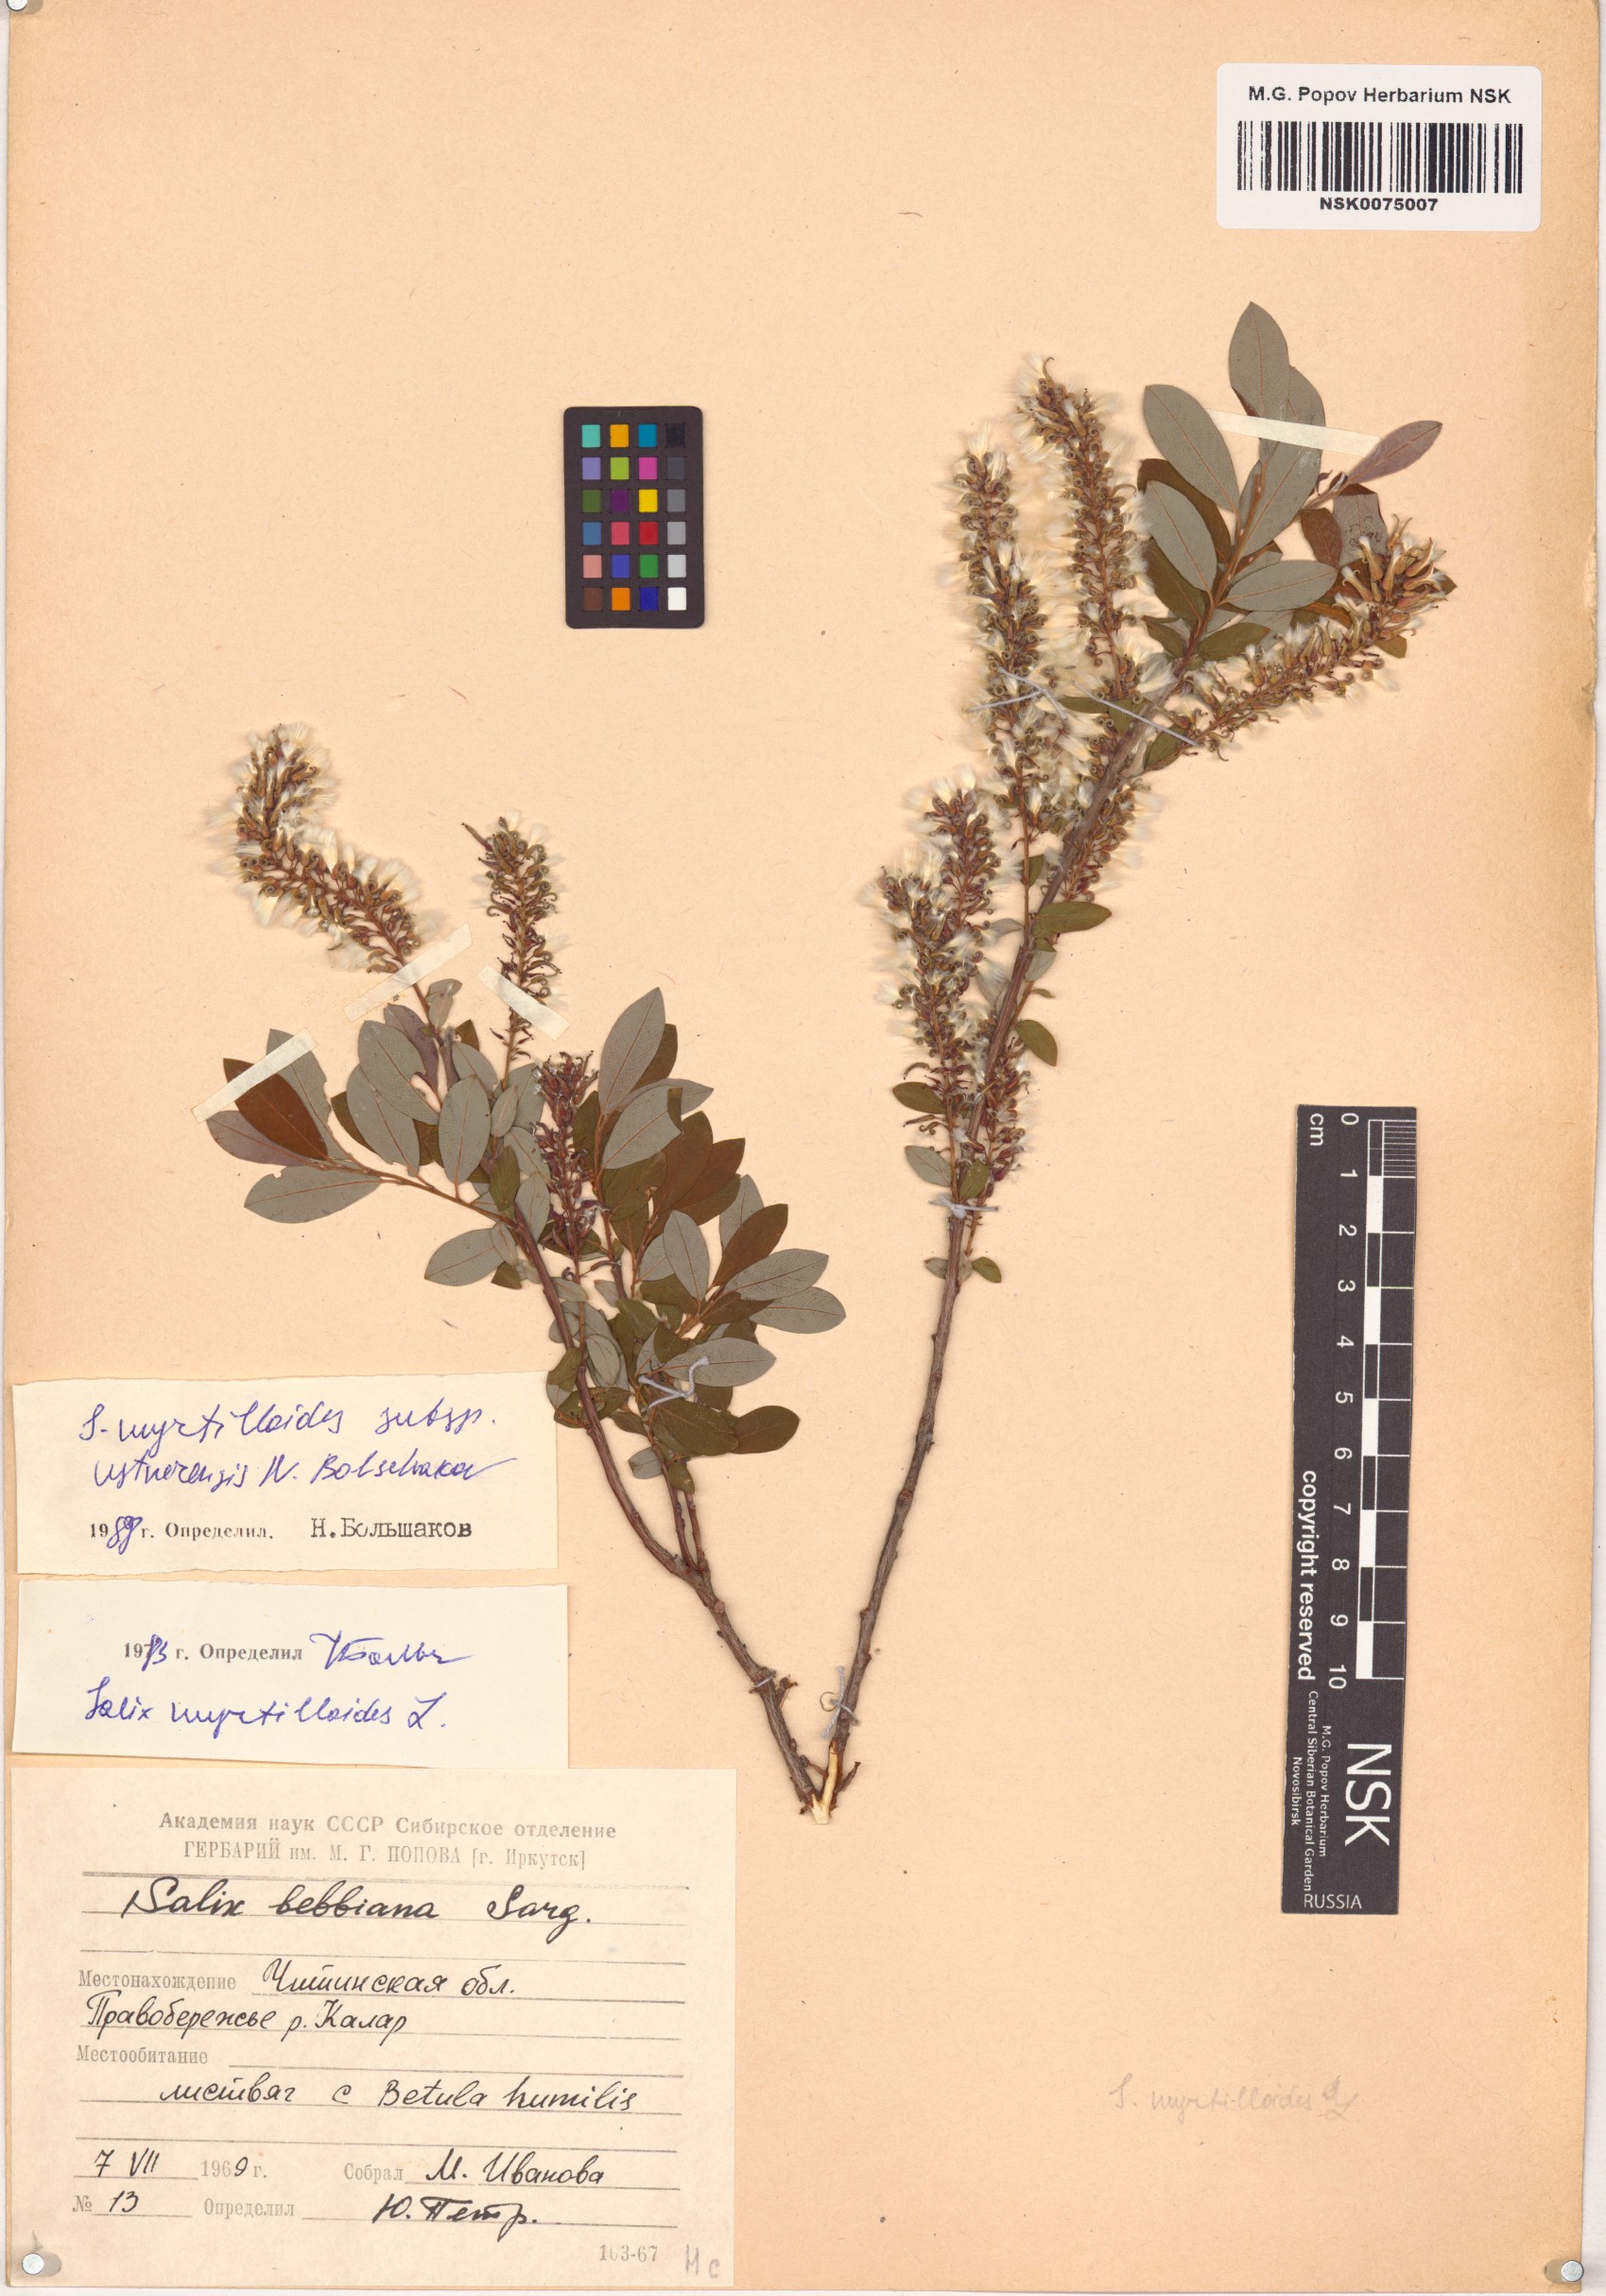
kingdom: Plantae
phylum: Tracheophyta
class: Magnoliopsida
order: Malpighiales
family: Salicaceae
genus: Salix
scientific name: Salix ustnerensis
